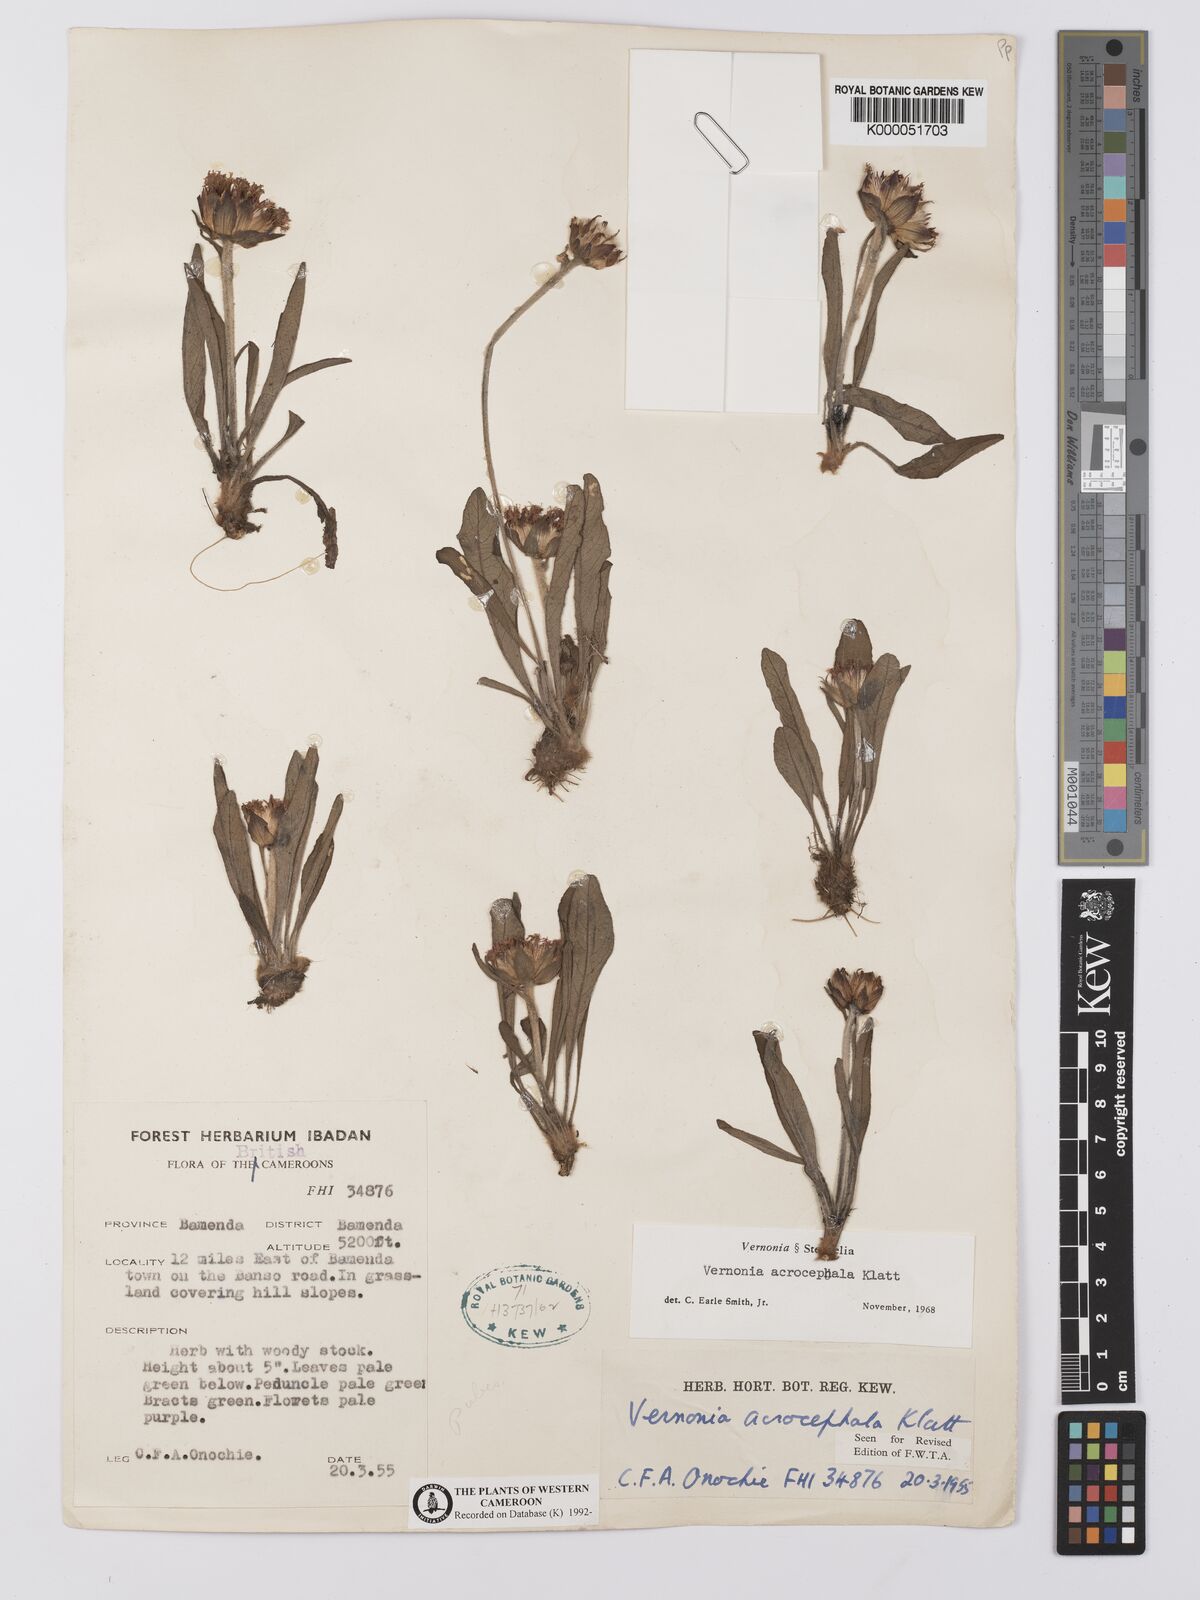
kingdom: Plantae
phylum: Tracheophyta
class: Magnoliopsida
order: Asterales
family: Asteraceae
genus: Vernonella
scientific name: Vernonella acrocephala
